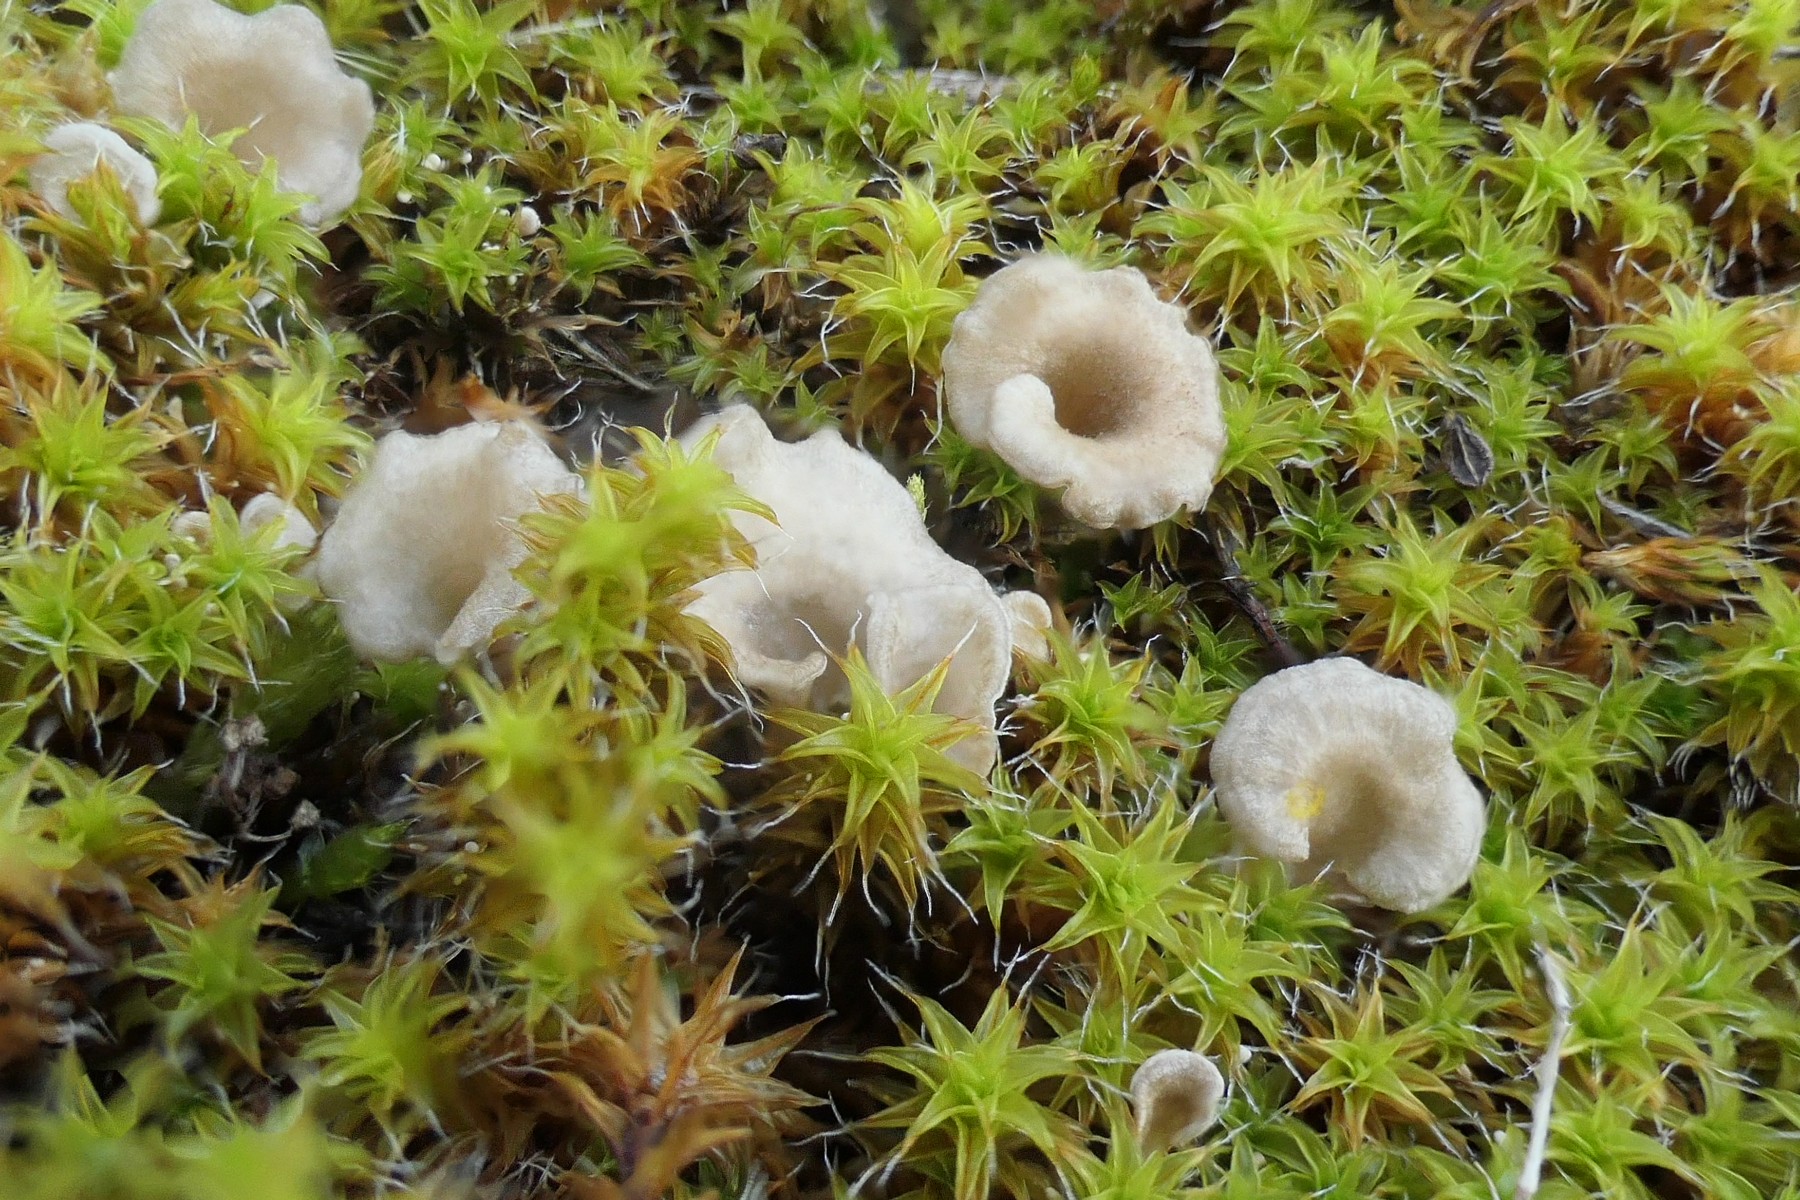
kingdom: Fungi
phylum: Basidiomycota
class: Agaricomycetes
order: Agaricales
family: Hygrophoraceae
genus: Arrhenia
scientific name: Arrhenia spathulata
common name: skæv fontænehat
